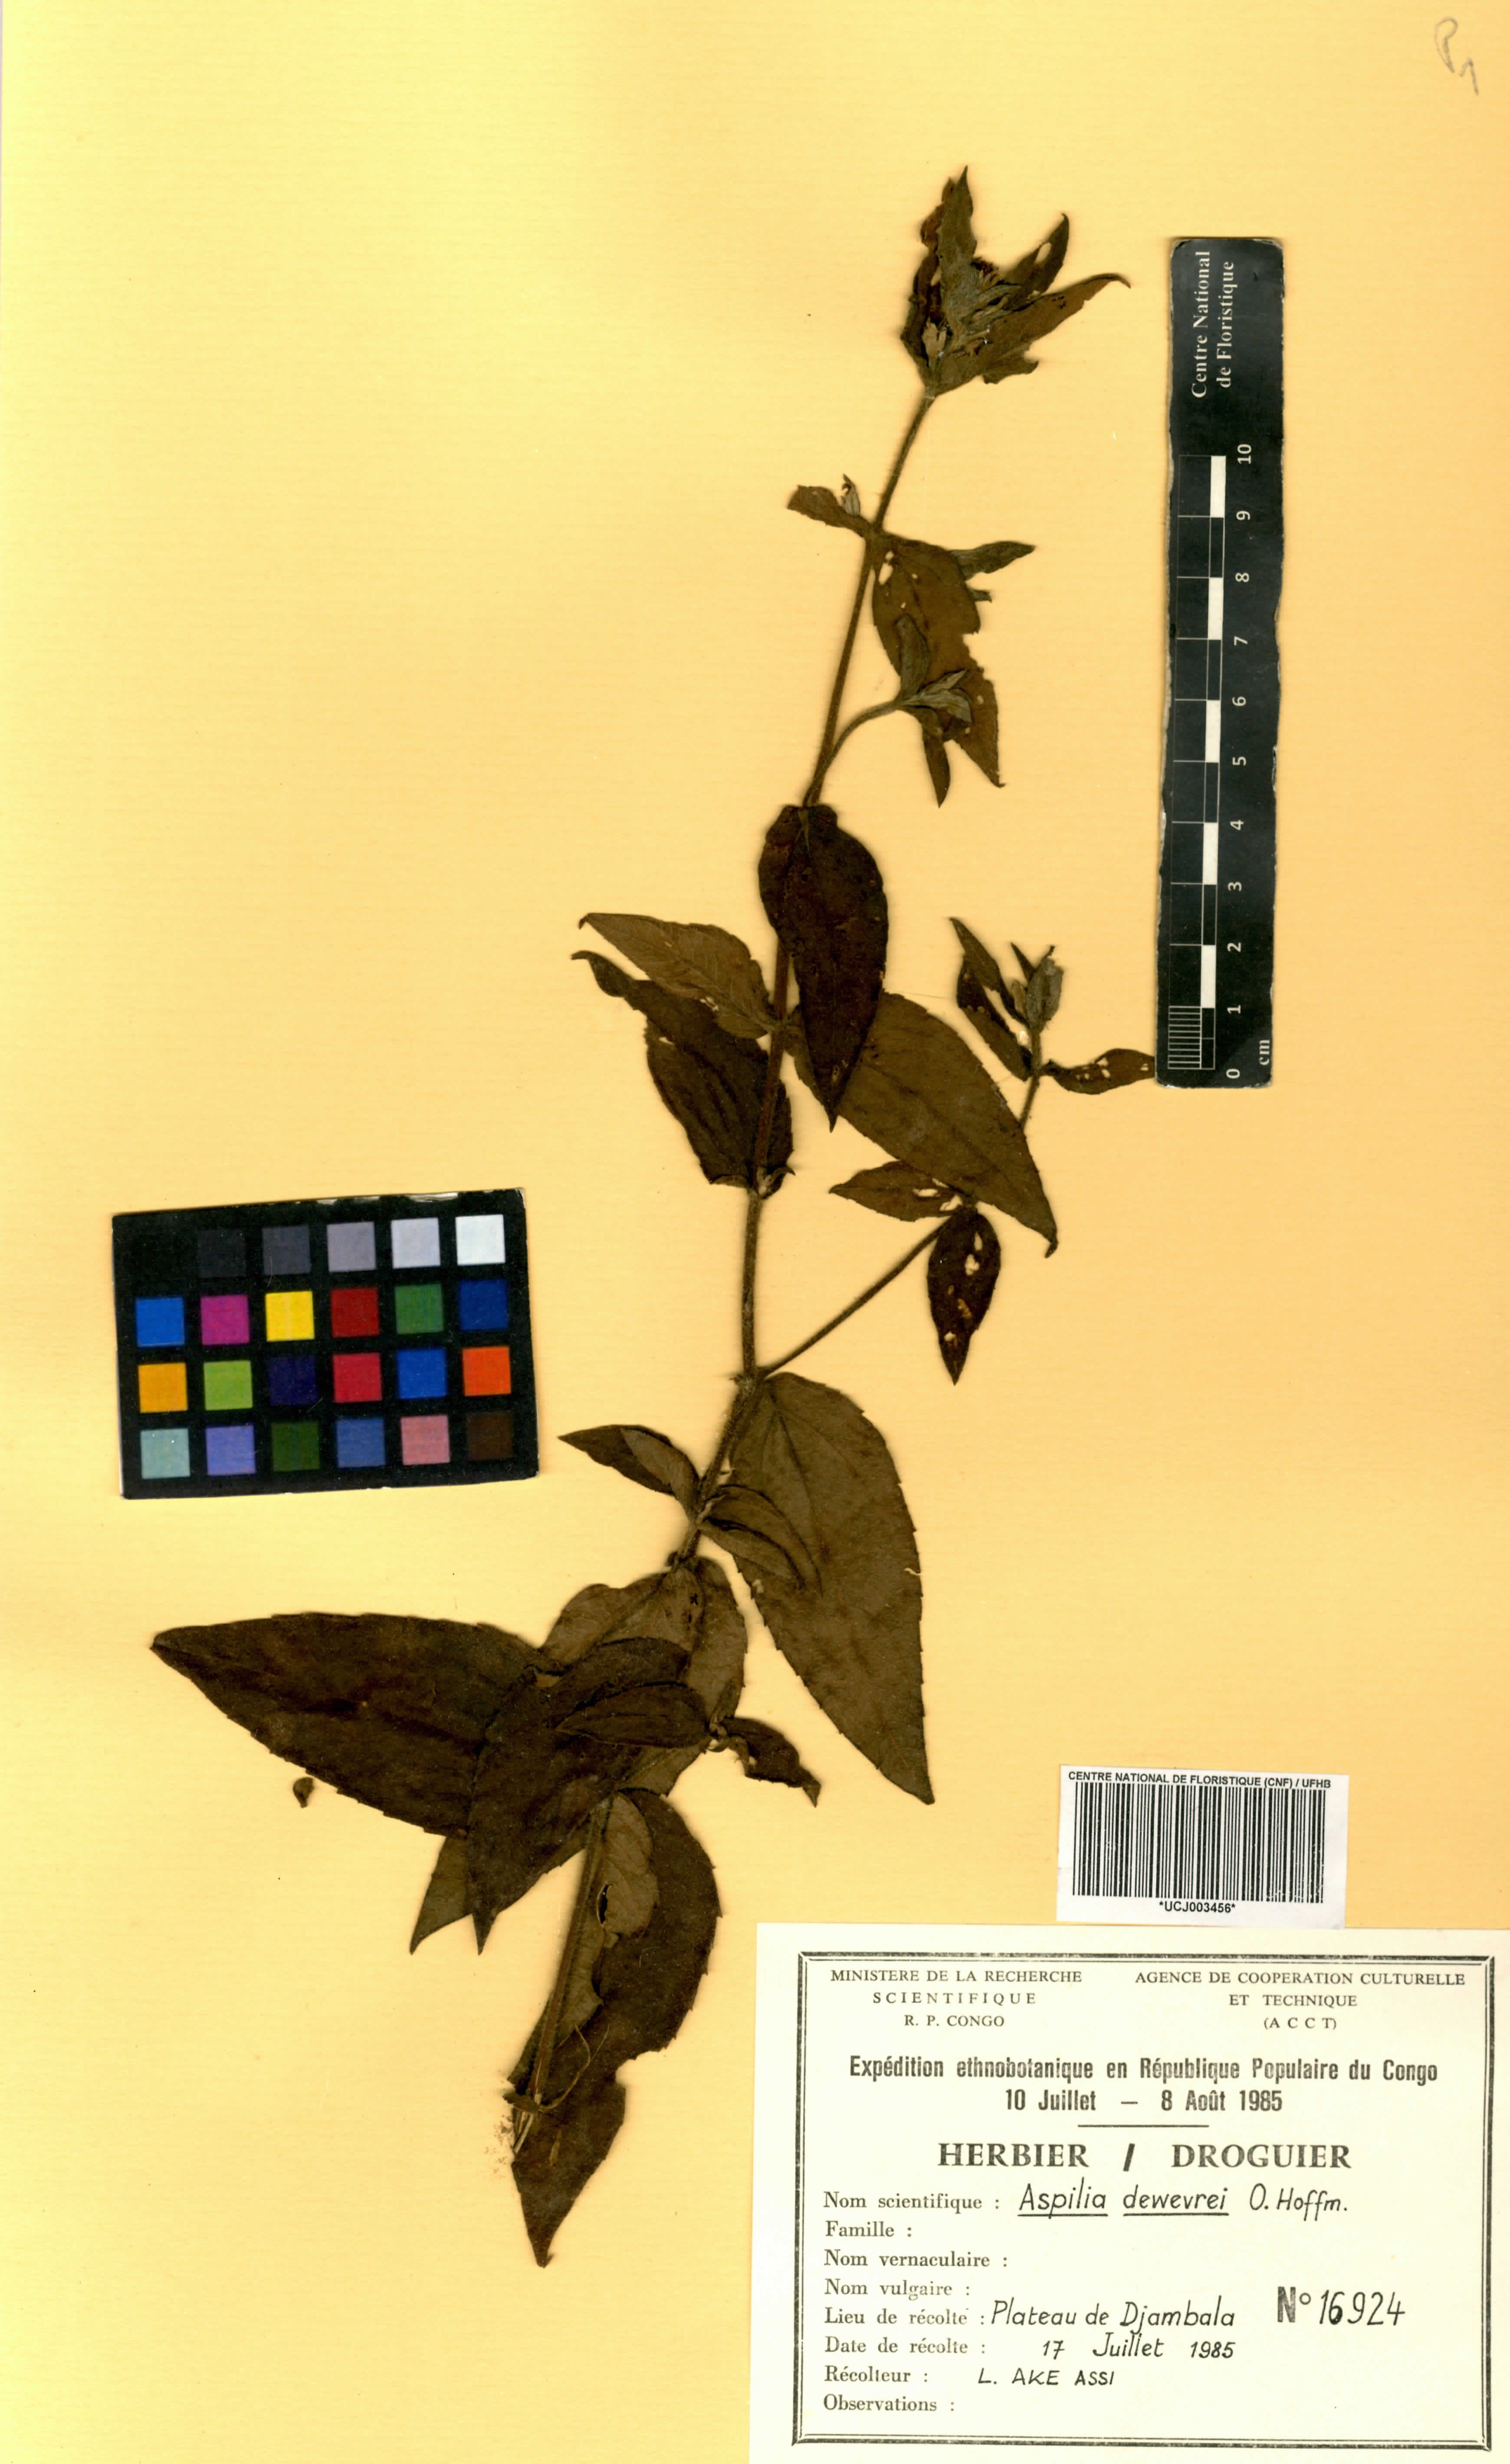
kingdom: Plantae
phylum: Tracheophyta
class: Magnoliopsida
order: Asterales
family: Asteraceae
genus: Aspilia
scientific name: Aspilia ciliata
